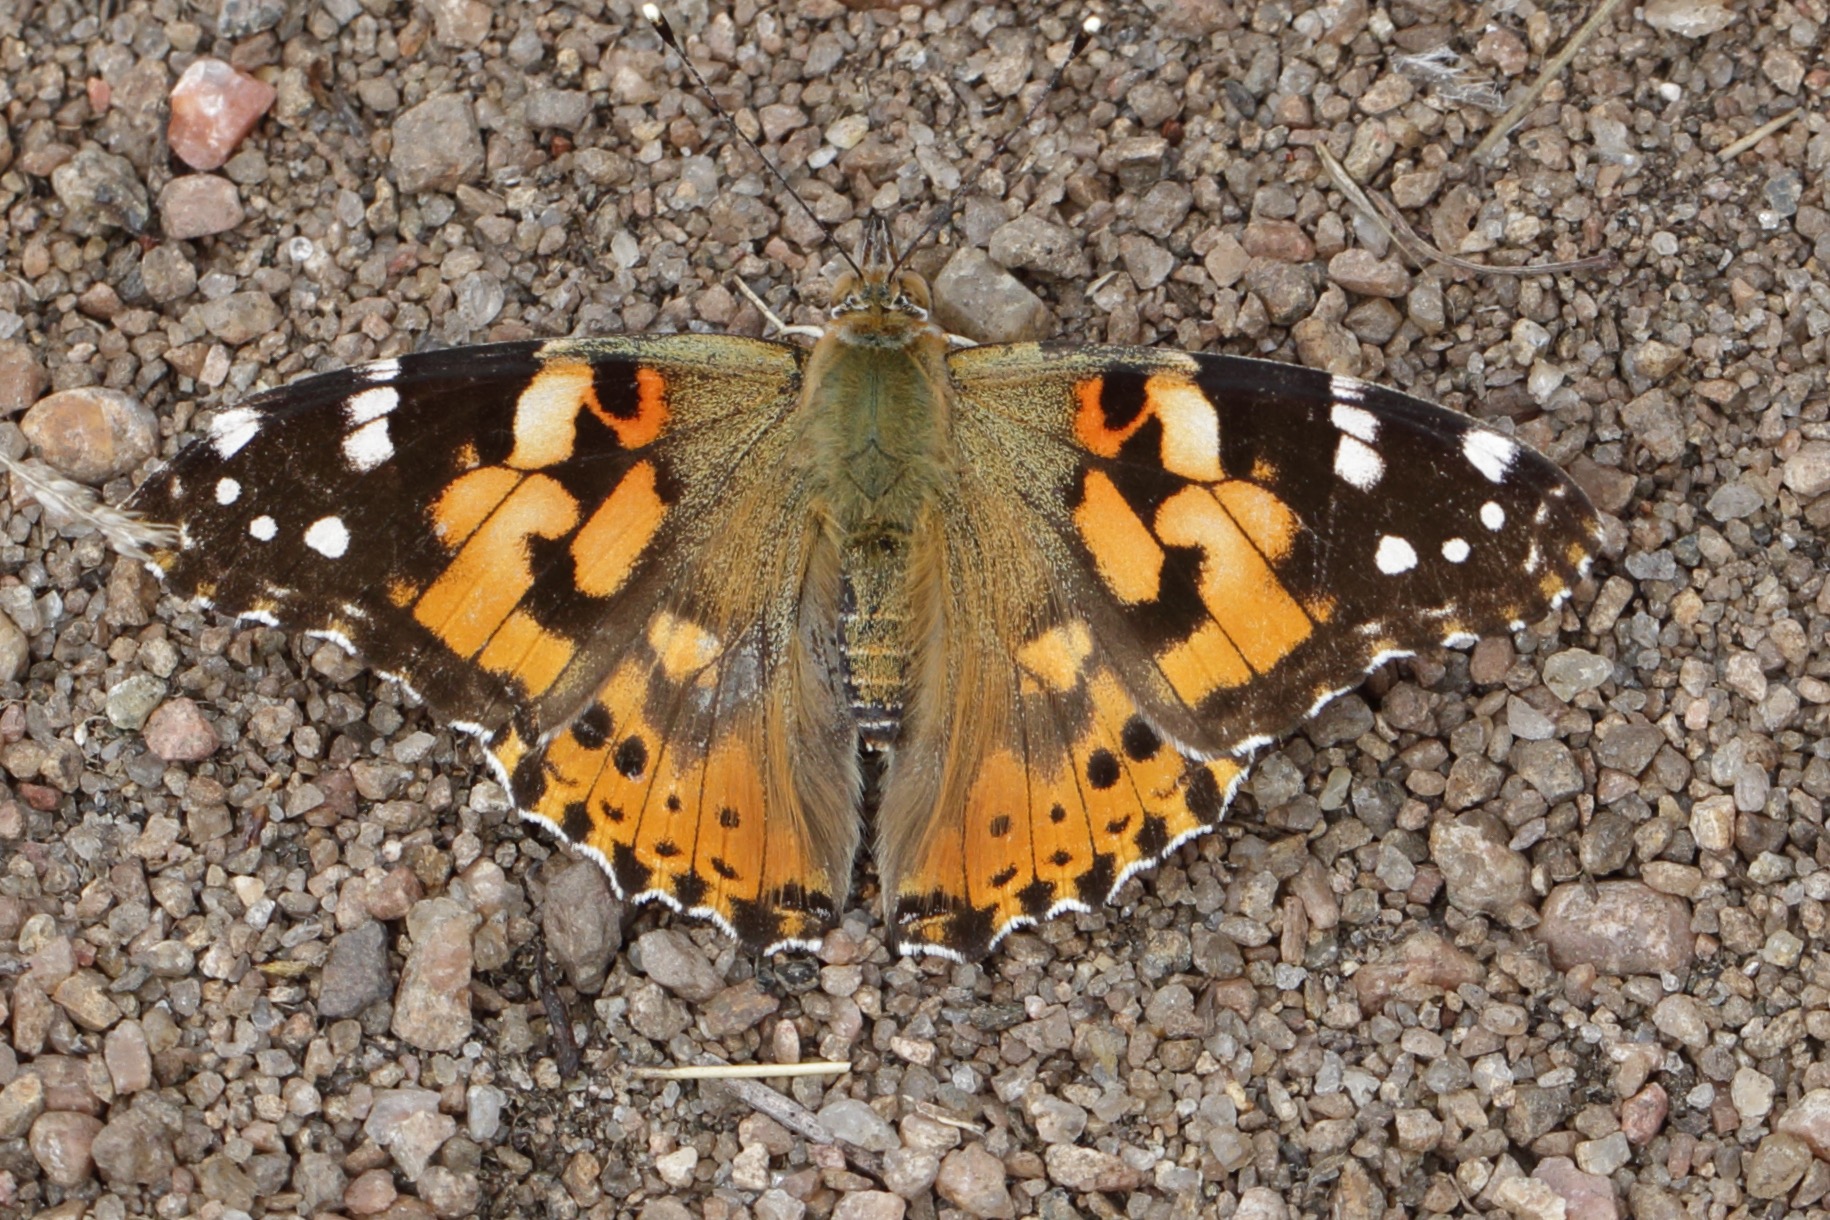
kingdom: Animalia
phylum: Arthropoda
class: Insecta
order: Lepidoptera
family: Nymphalidae
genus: Vanessa
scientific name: Vanessa cardui
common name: Tidselsommerfugl
